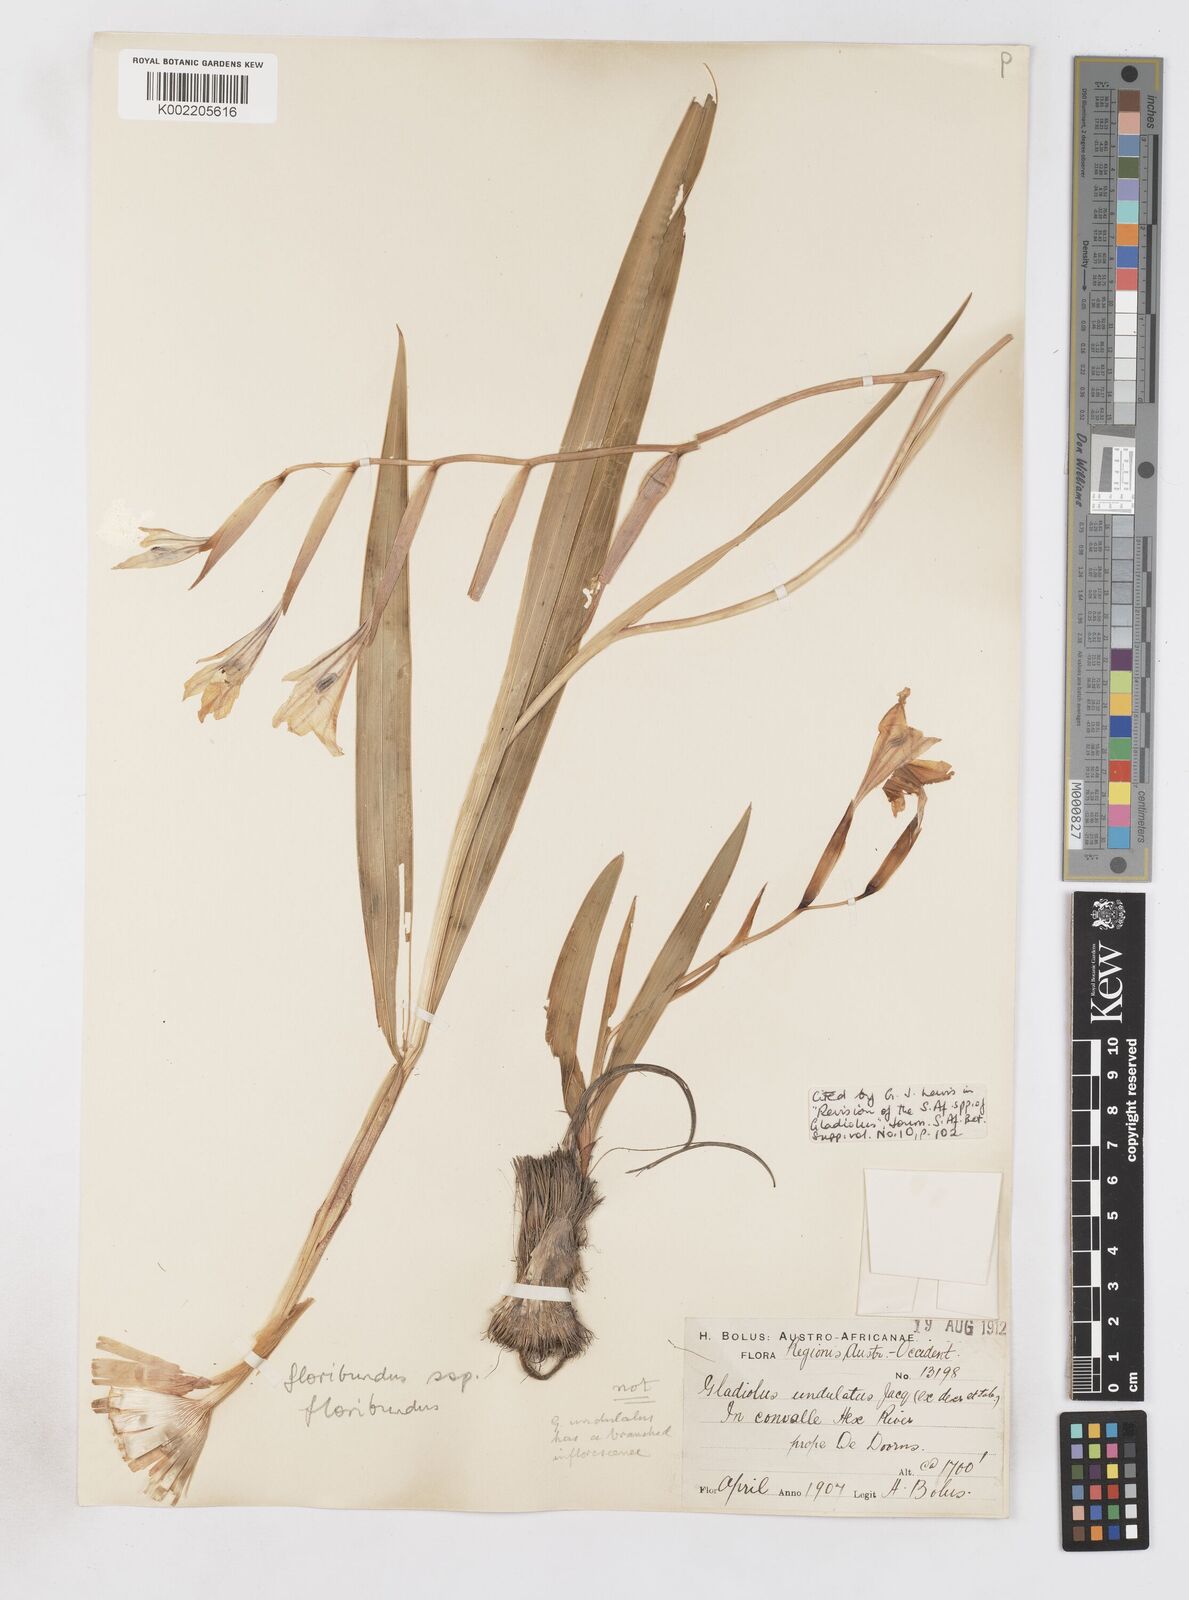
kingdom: Plantae
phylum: Tracheophyta
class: Liliopsida
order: Asparagales
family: Iridaceae
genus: Gladiolus
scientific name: Gladiolus floribundus
